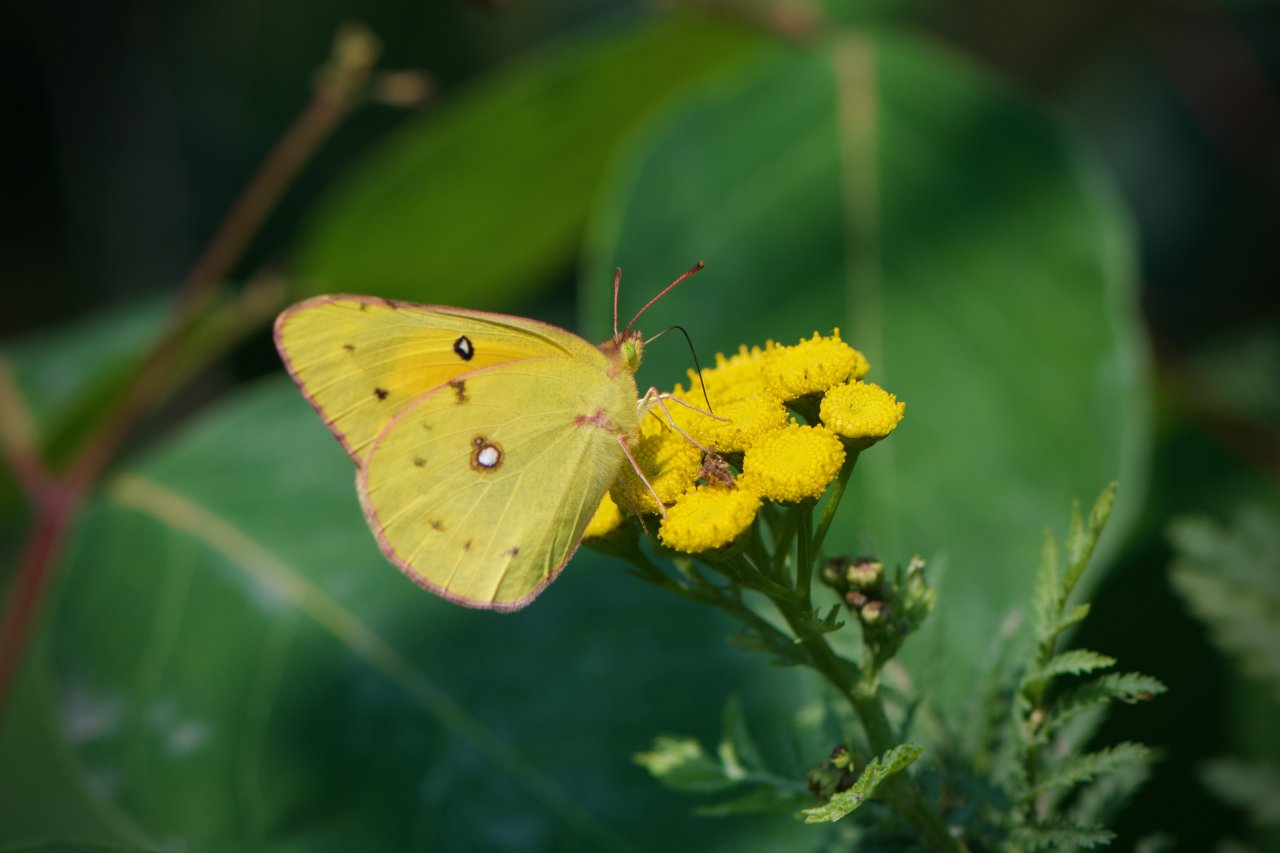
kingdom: Animalia
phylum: Arthropoda
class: Insecta
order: Lepidoptera
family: Pieridae
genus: Colias
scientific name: Colias eurytheme
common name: Orange Sulphur
